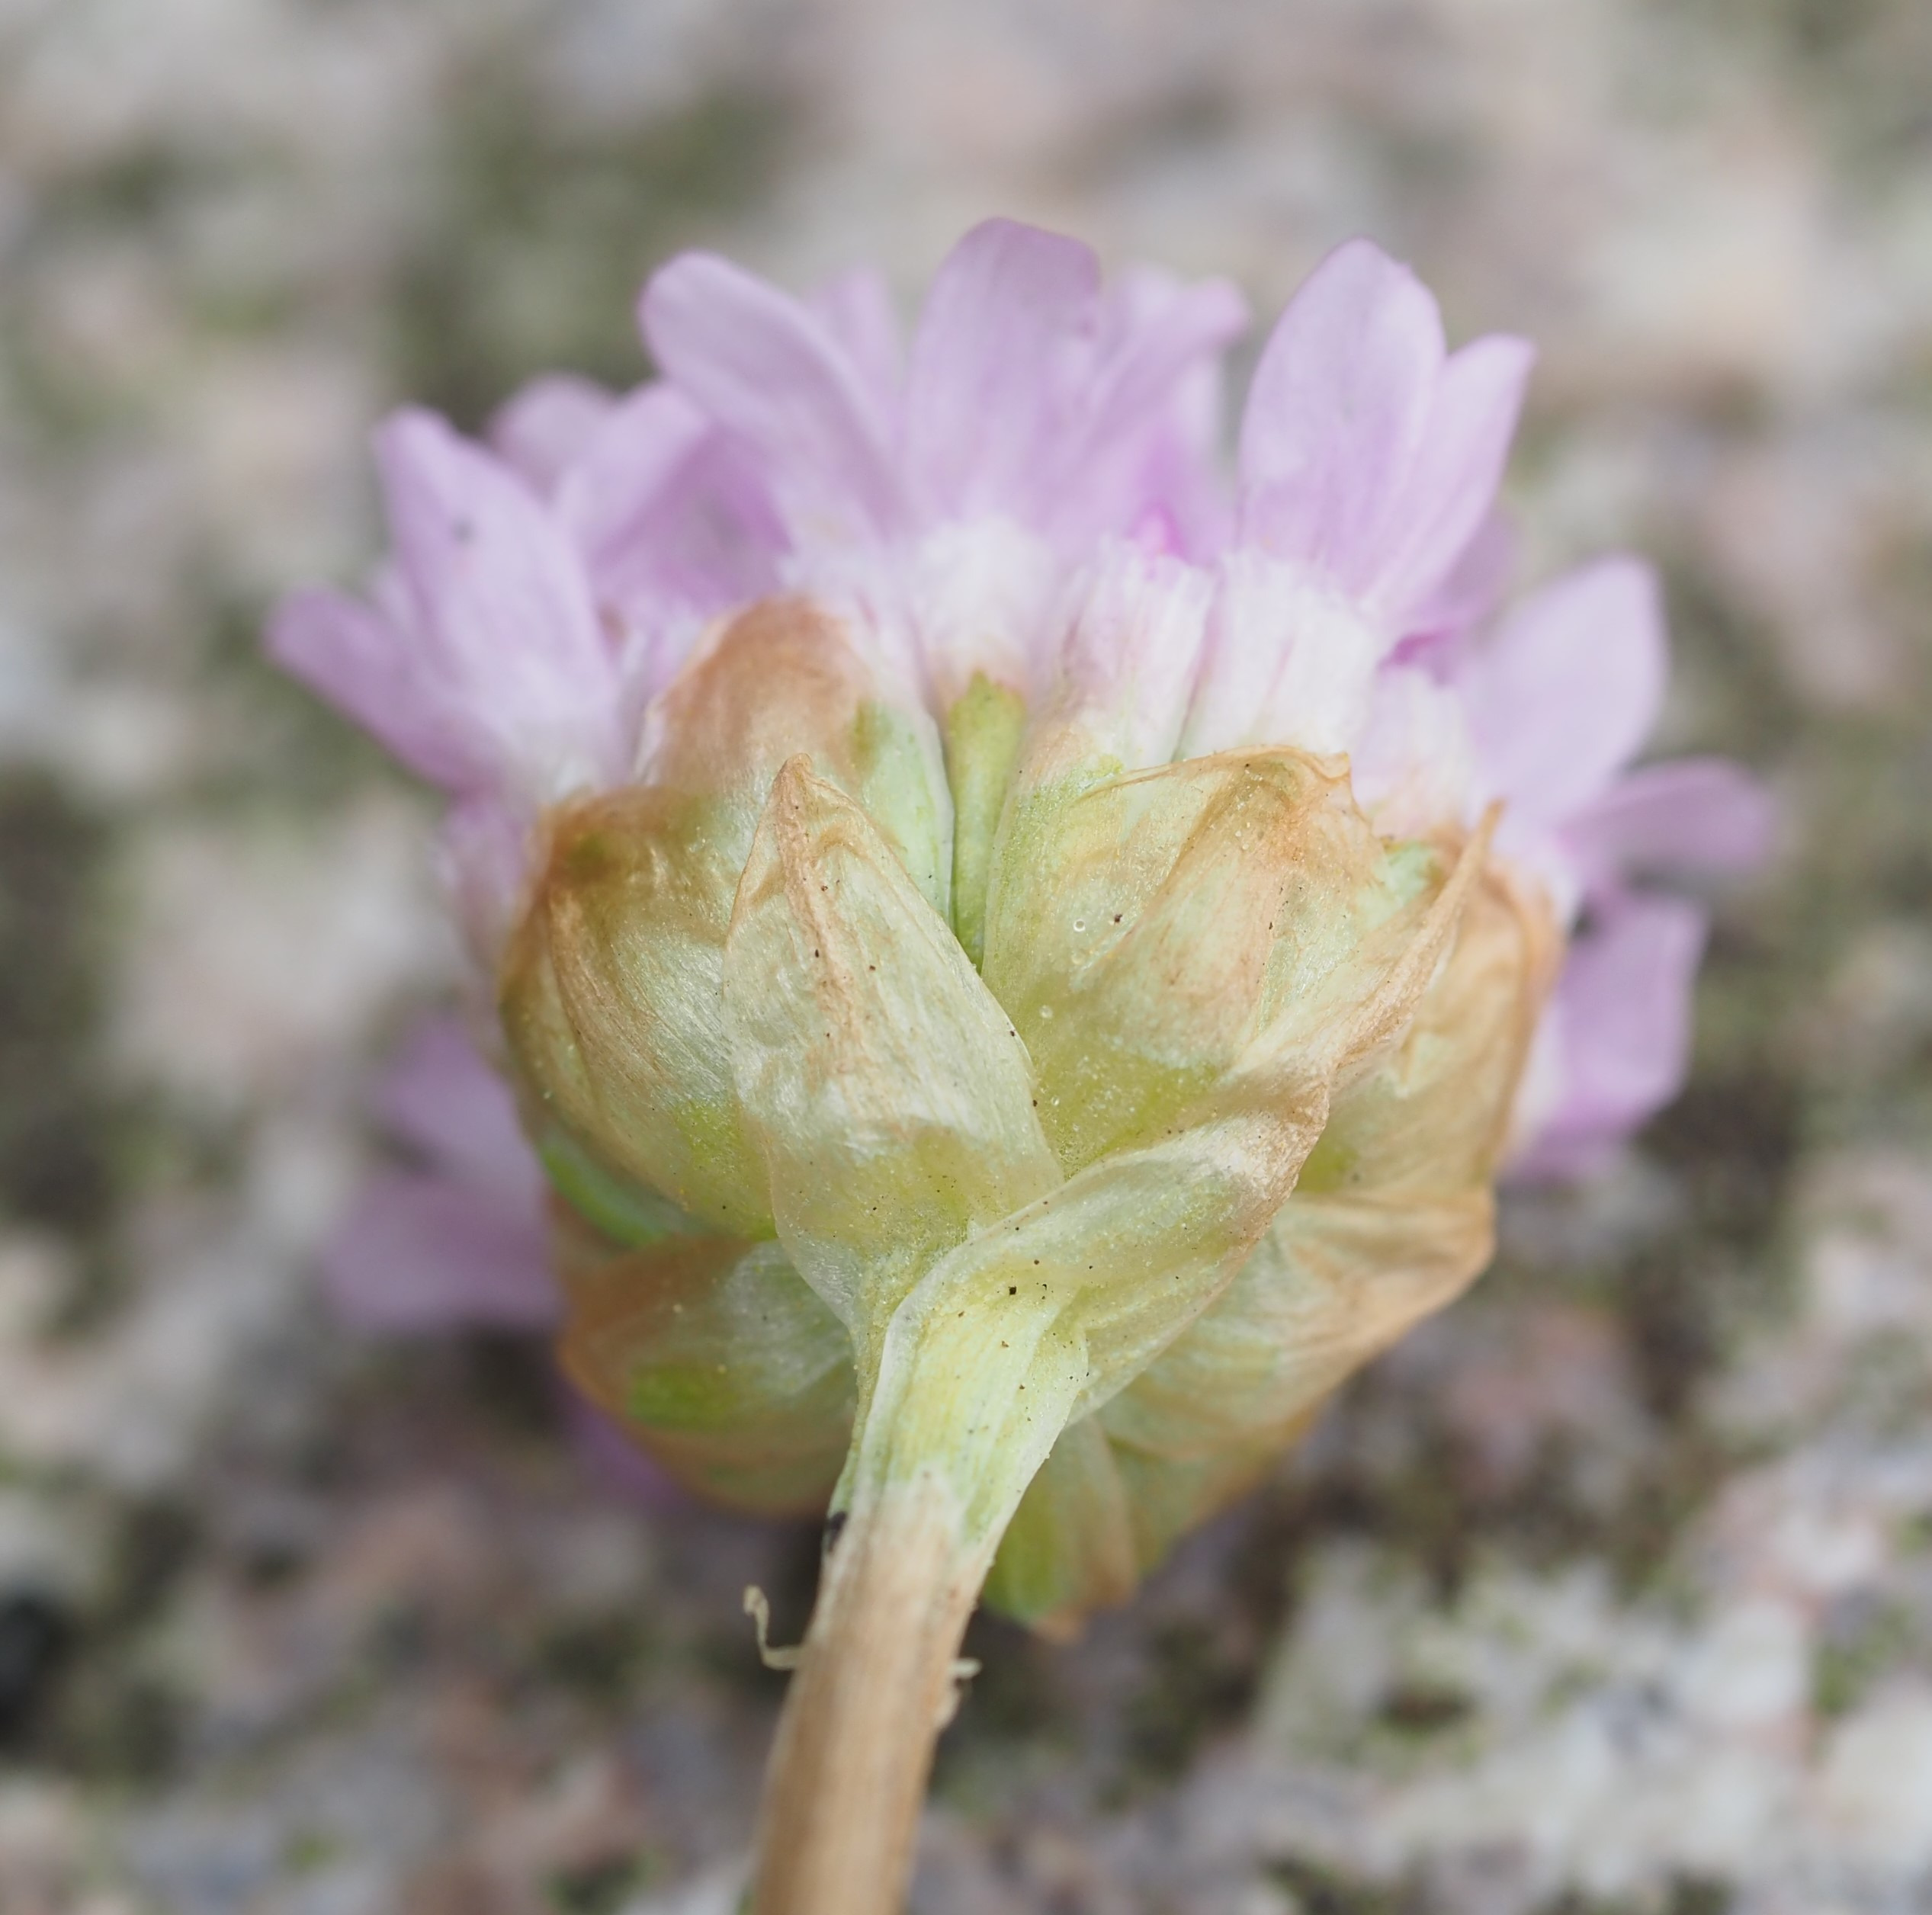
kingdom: Plantae
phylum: Tracheophyta
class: Magnoliopsida
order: Caryophyllales
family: Plumbaginaceae
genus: Armeria
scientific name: Armeria maritima
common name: Strand-engelskgræs
